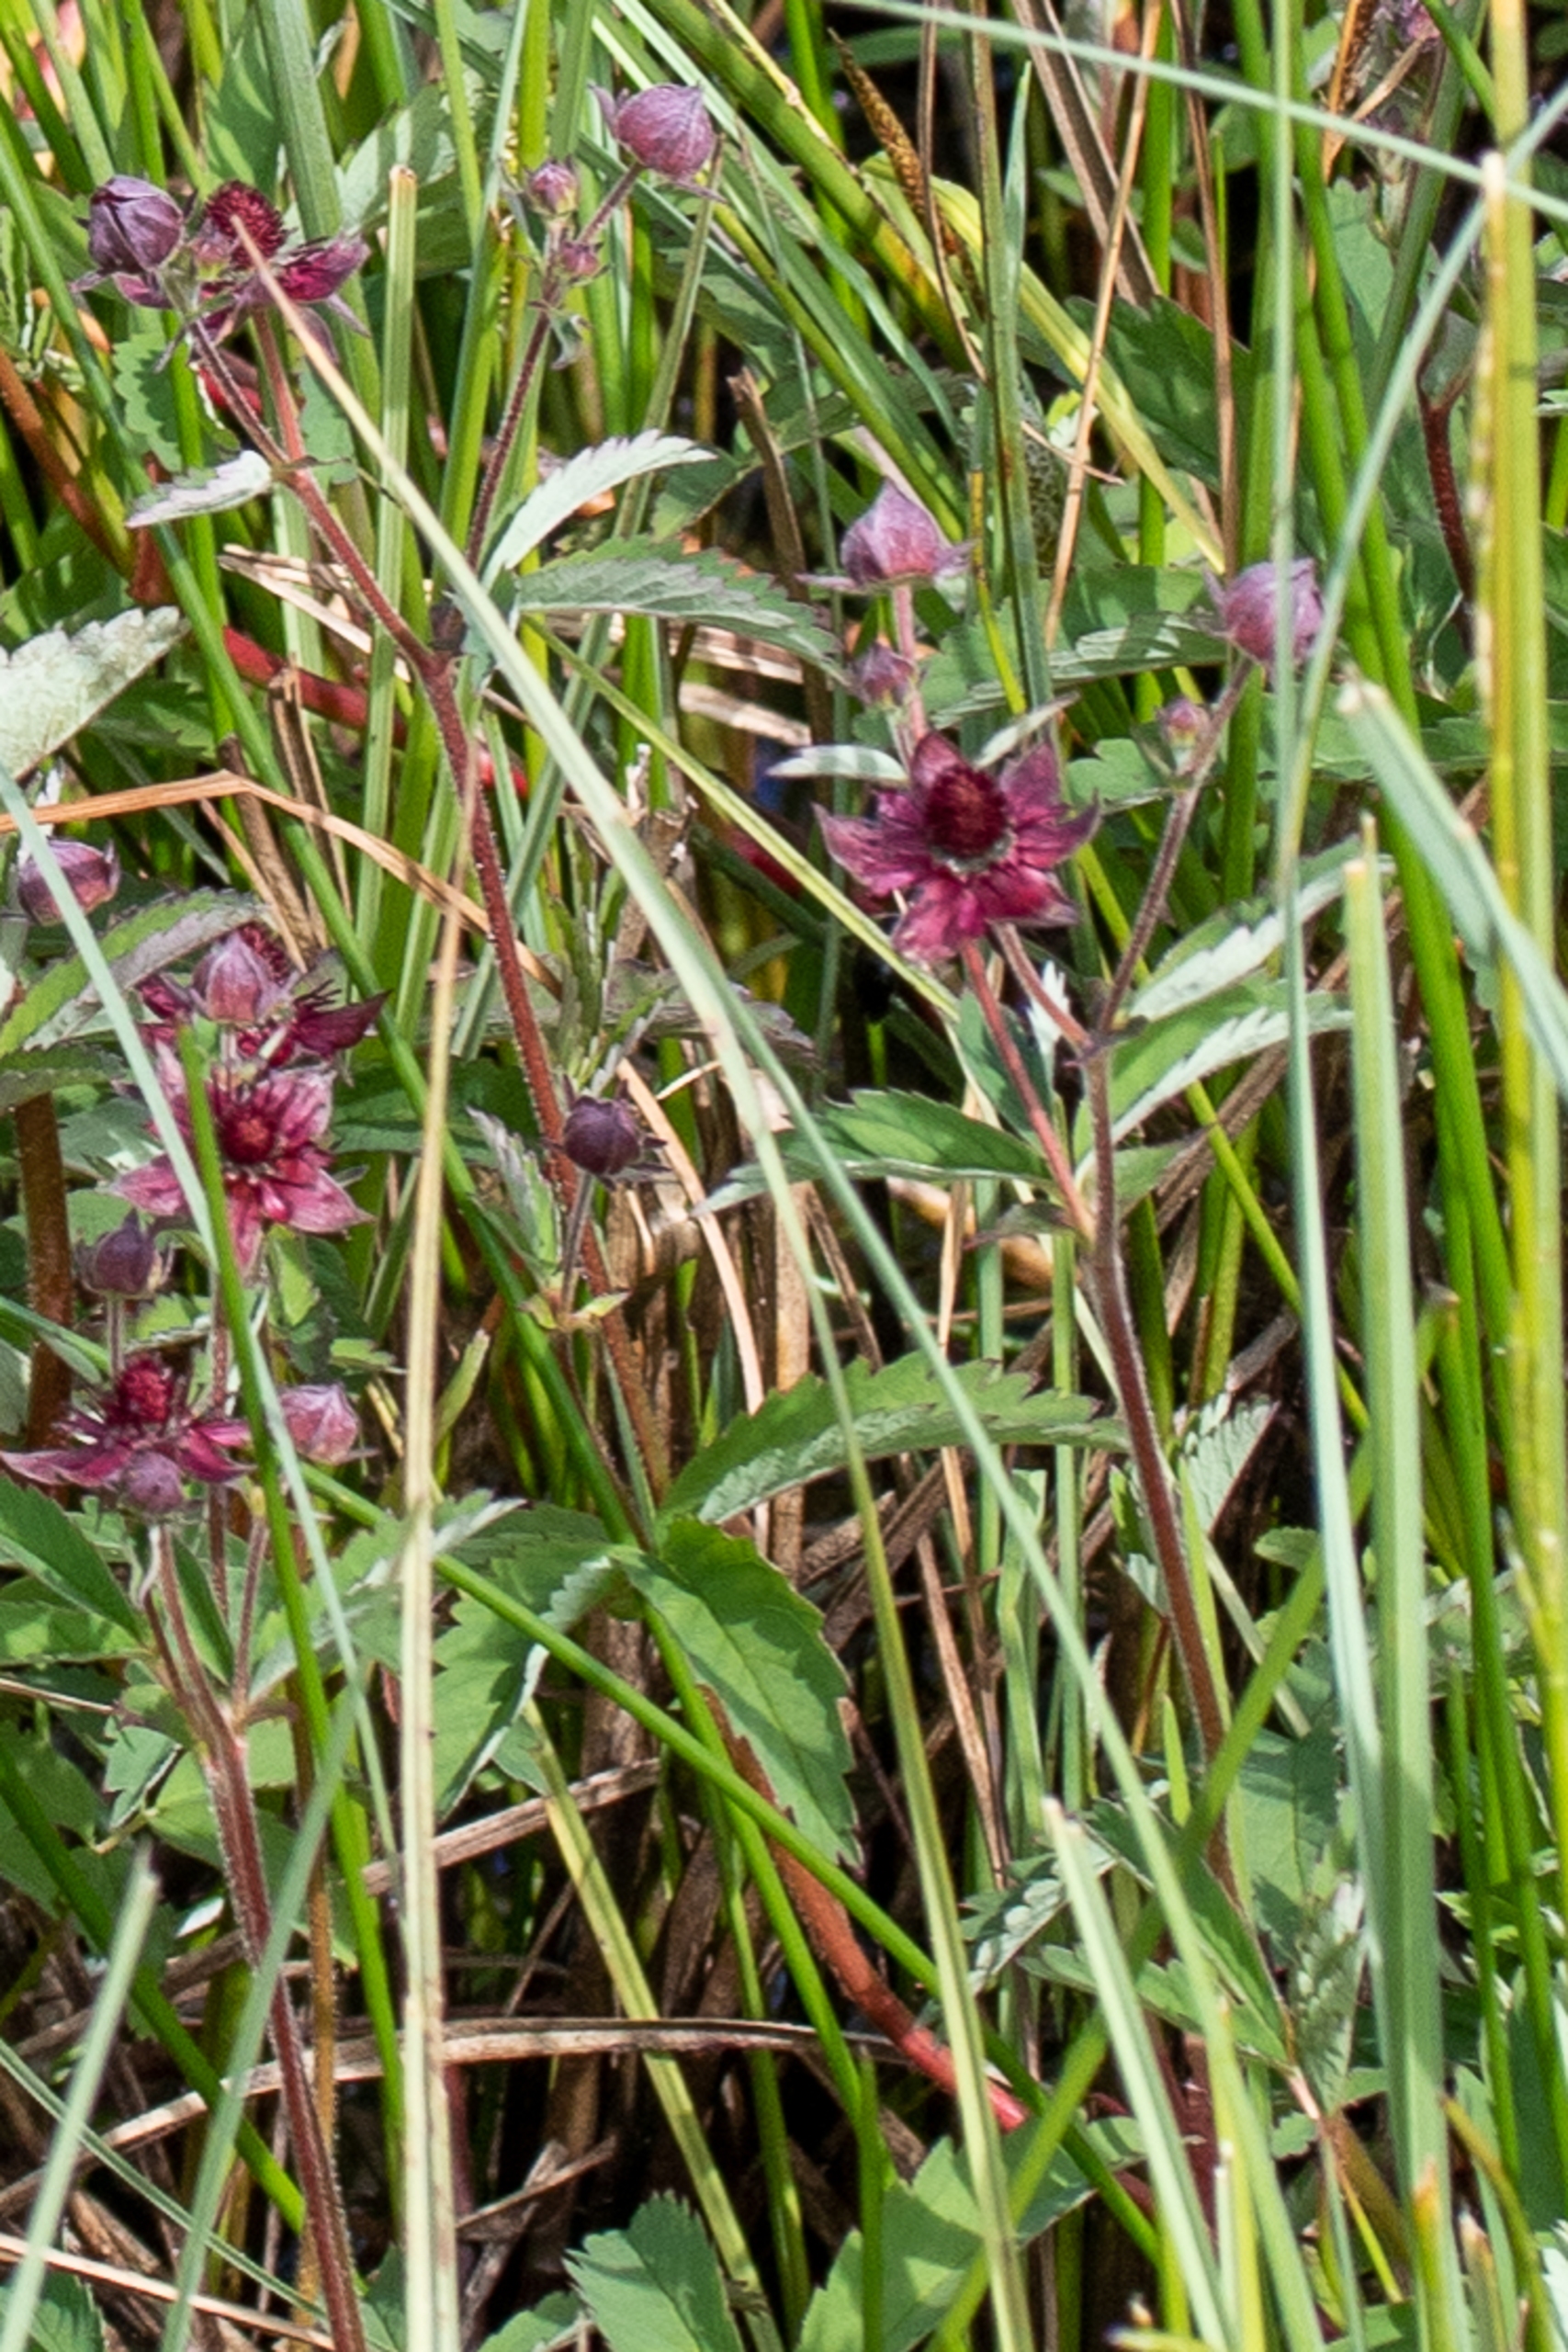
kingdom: Plantae
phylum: Tracheophyta
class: Magnoliopsida
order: Rosales
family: Rosaceae
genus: Comarum
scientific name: Comarum palustre
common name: Kragefod
